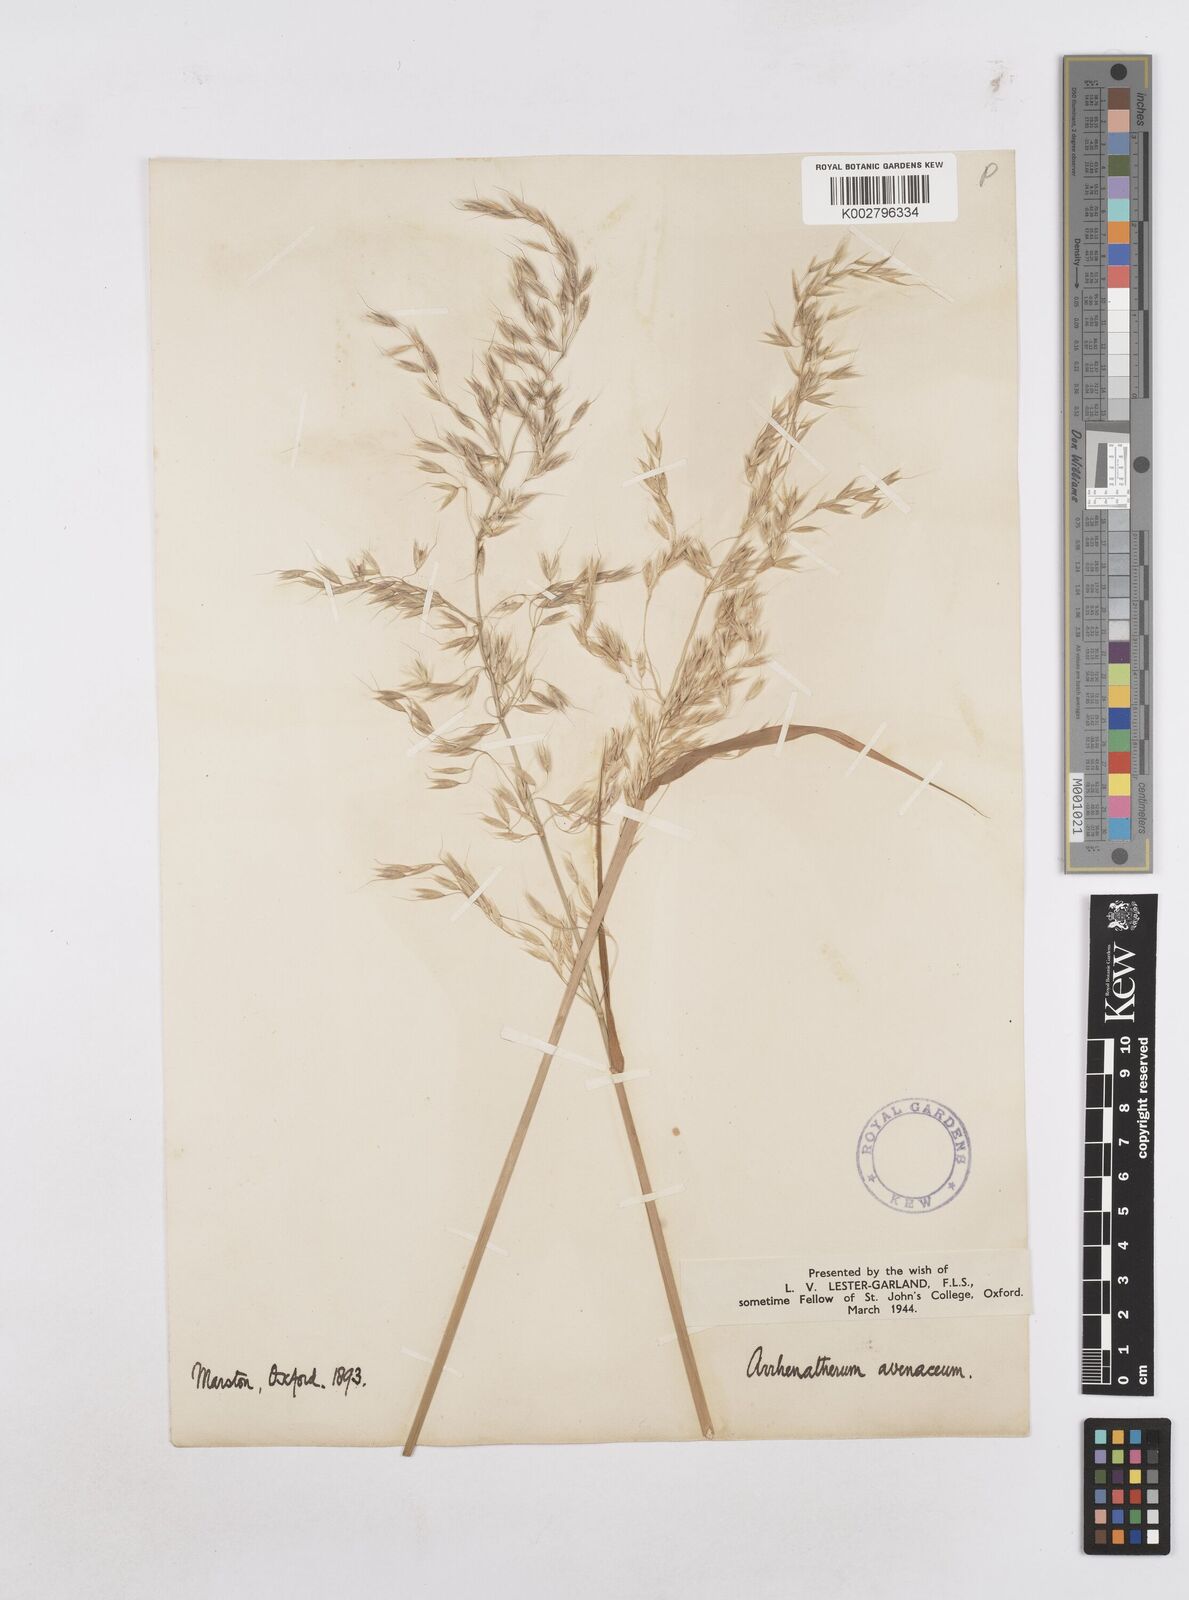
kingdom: Plantae
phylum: Tracheophyta
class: Liliopsida
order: Poales
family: Poaceae
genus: Arrhenatherum
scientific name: Arrhenatherum elatius
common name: Tall oatgrass
